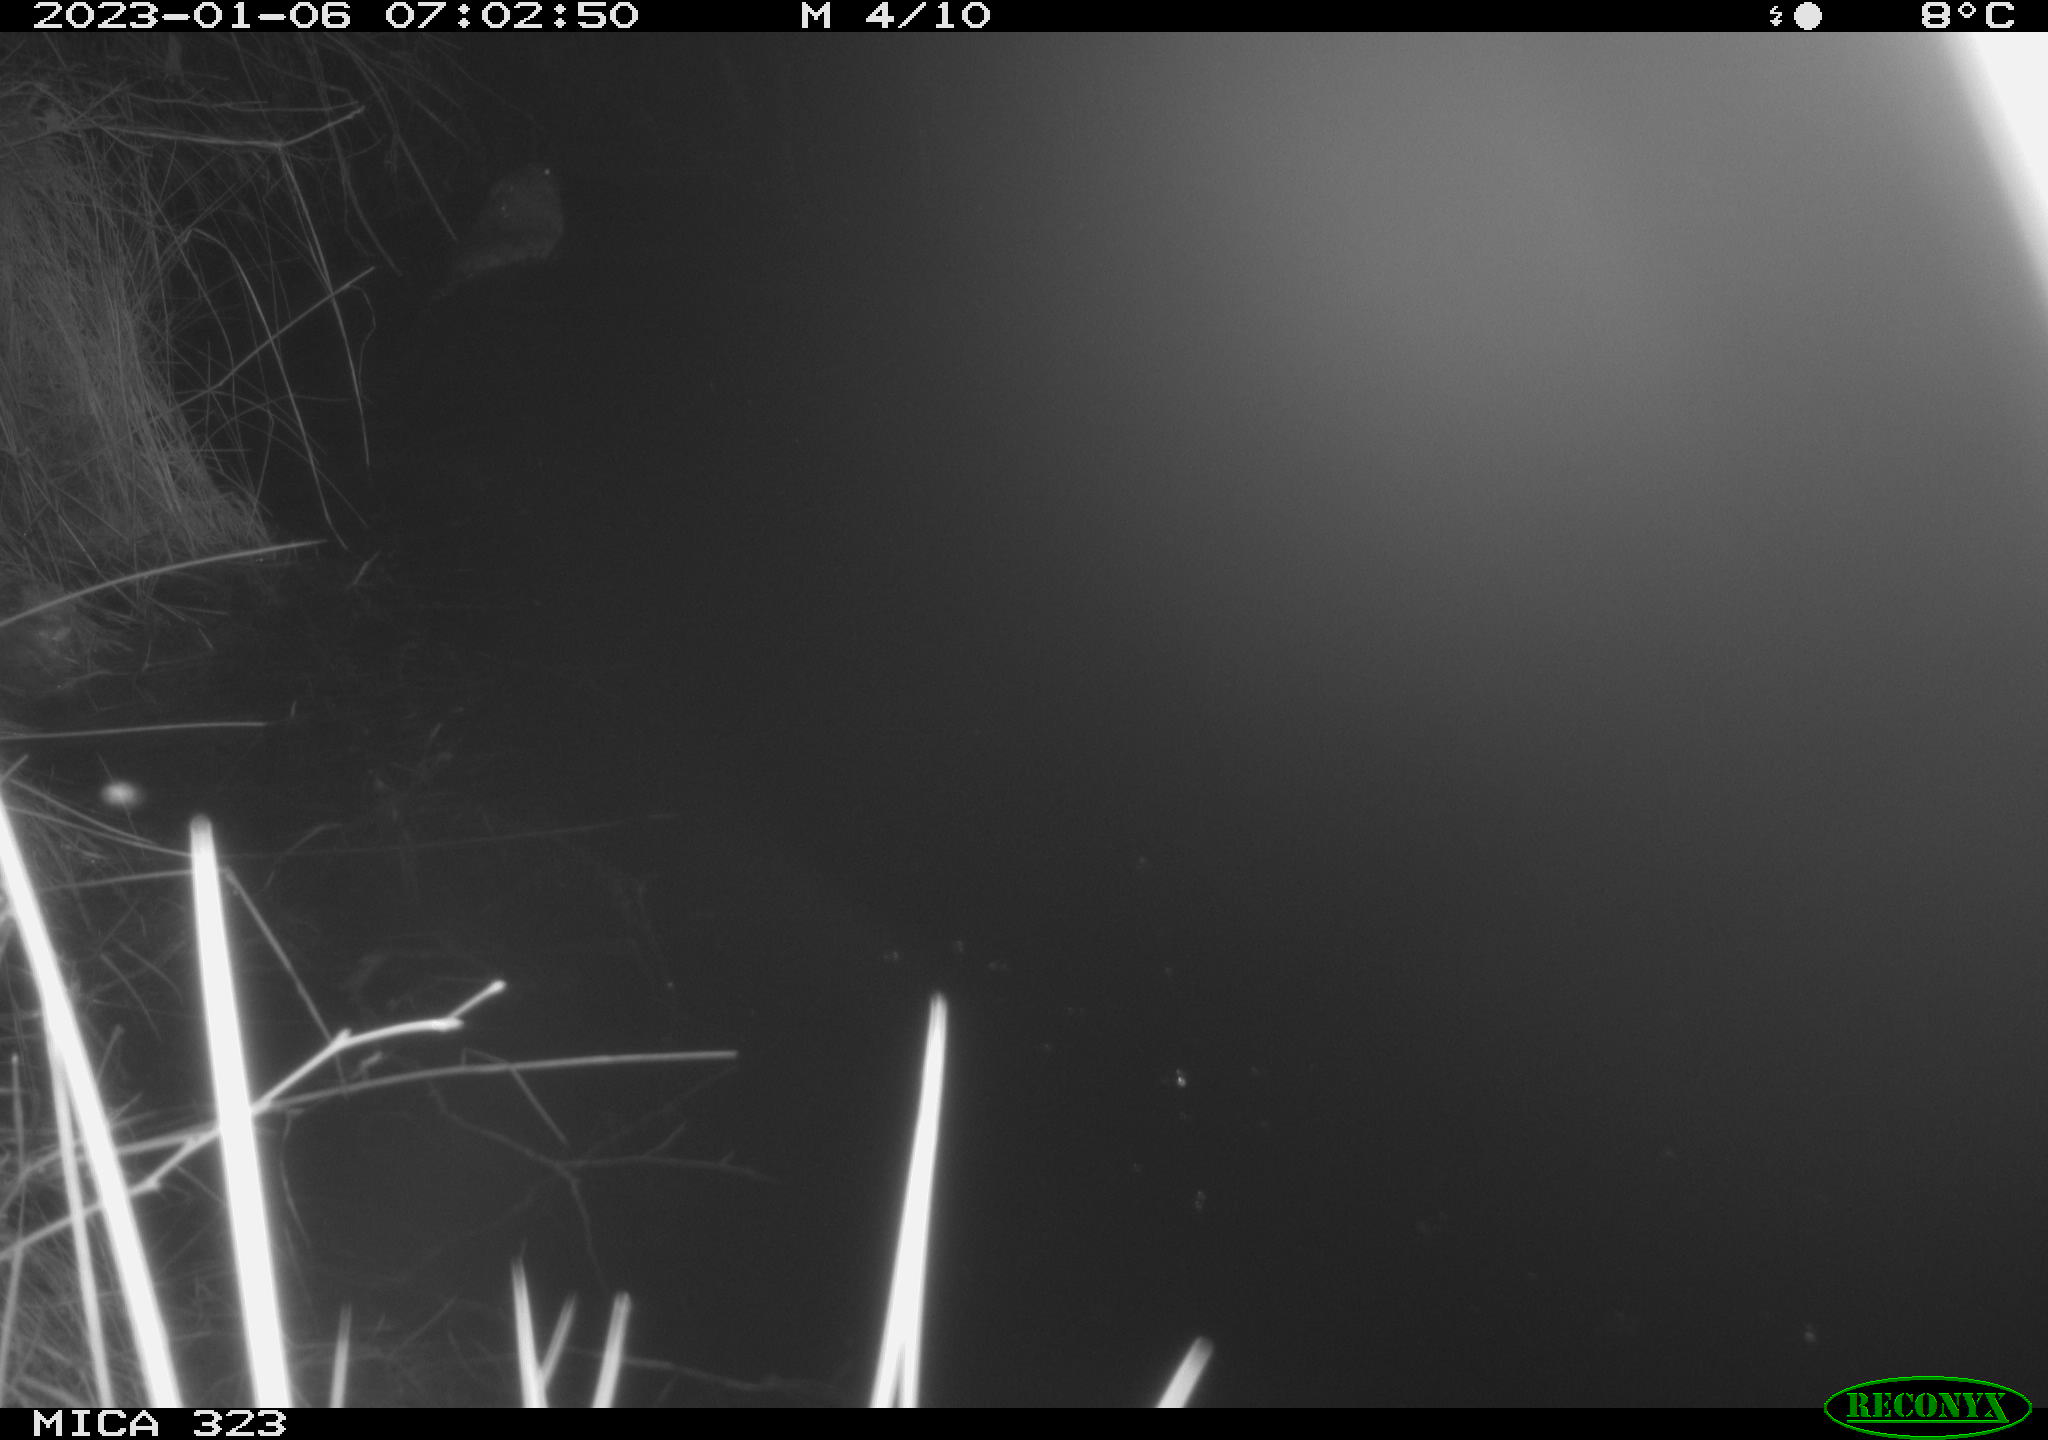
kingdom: Animalia
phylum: Chordata
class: Mammalia
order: Rodentia
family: Cricetidae
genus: Ondatra
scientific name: Ondatra zibethicus
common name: Muskrat
